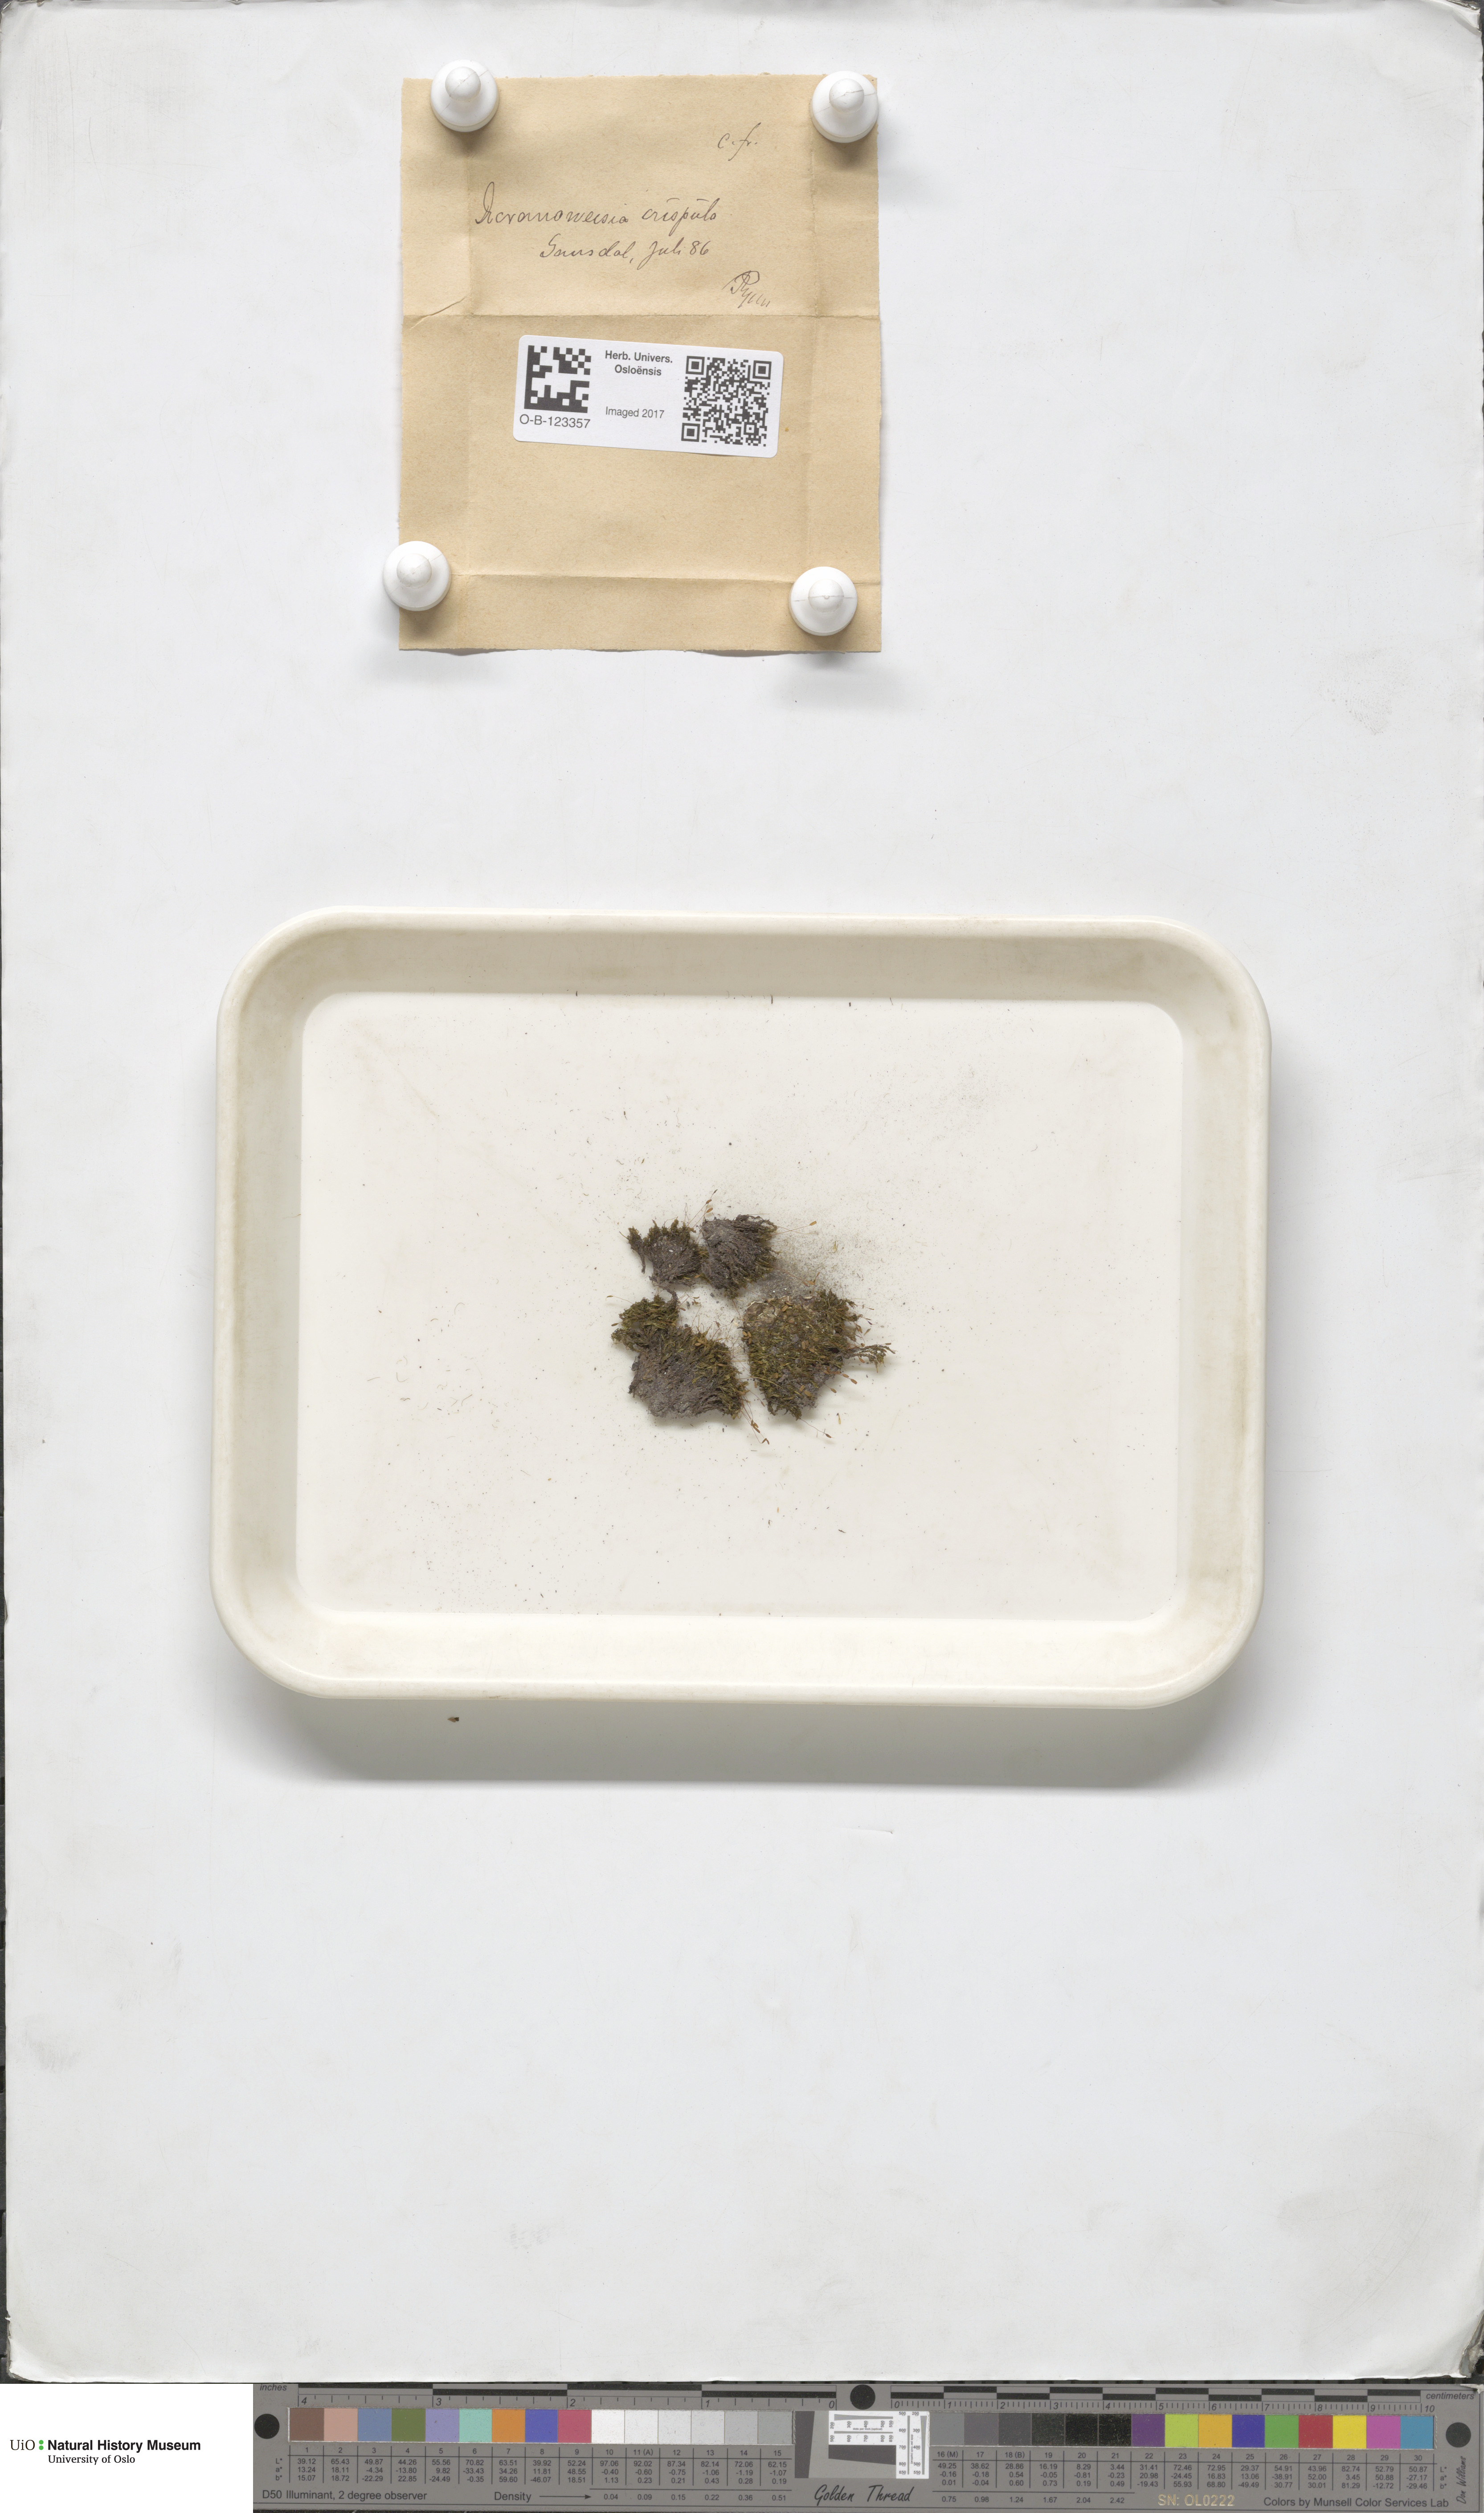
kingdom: Plantae
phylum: Bryophyta
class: Bryopsida
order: Scouleriales
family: Hymenolomataceae
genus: Hymenoloma
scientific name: Hymenoloma crispulum
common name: Mountain pincushion
